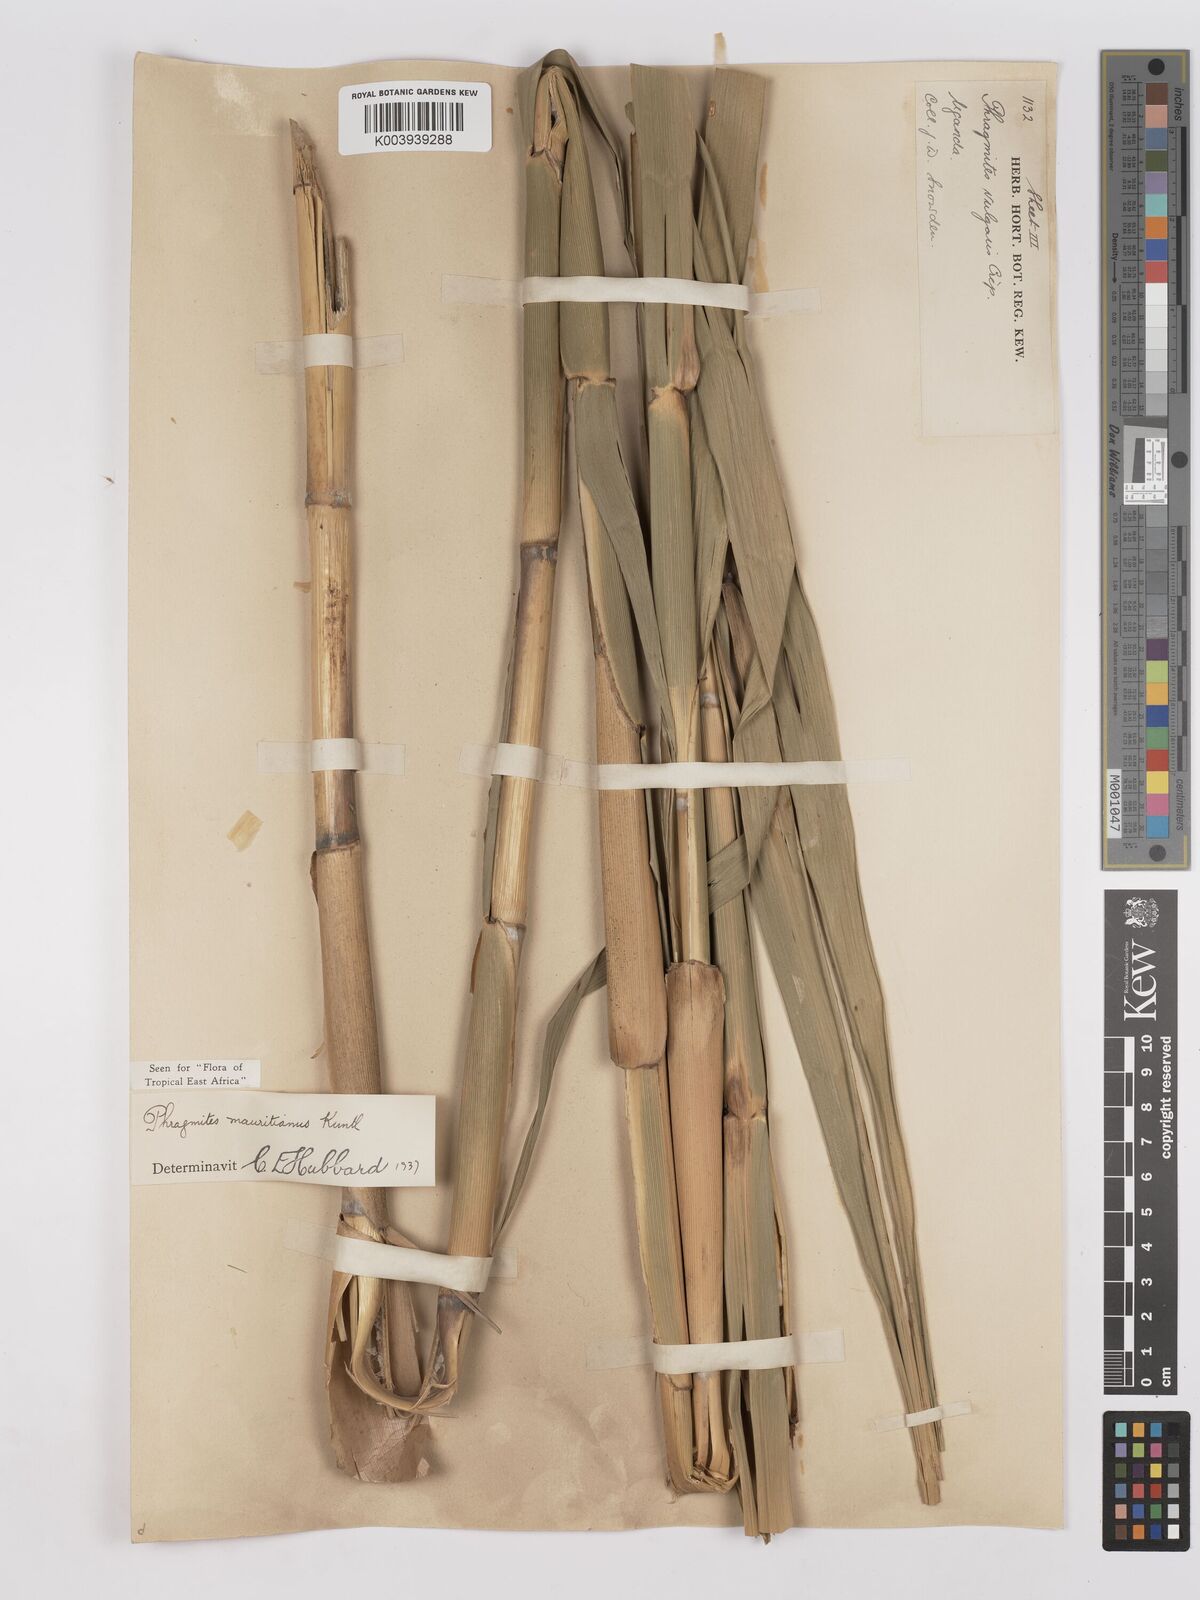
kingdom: Plantae
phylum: Tracheophyta
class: Liliopsida
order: Poales
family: Poaceae
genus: Phragmites
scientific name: Phragmites mauritianus
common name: Reed grass
